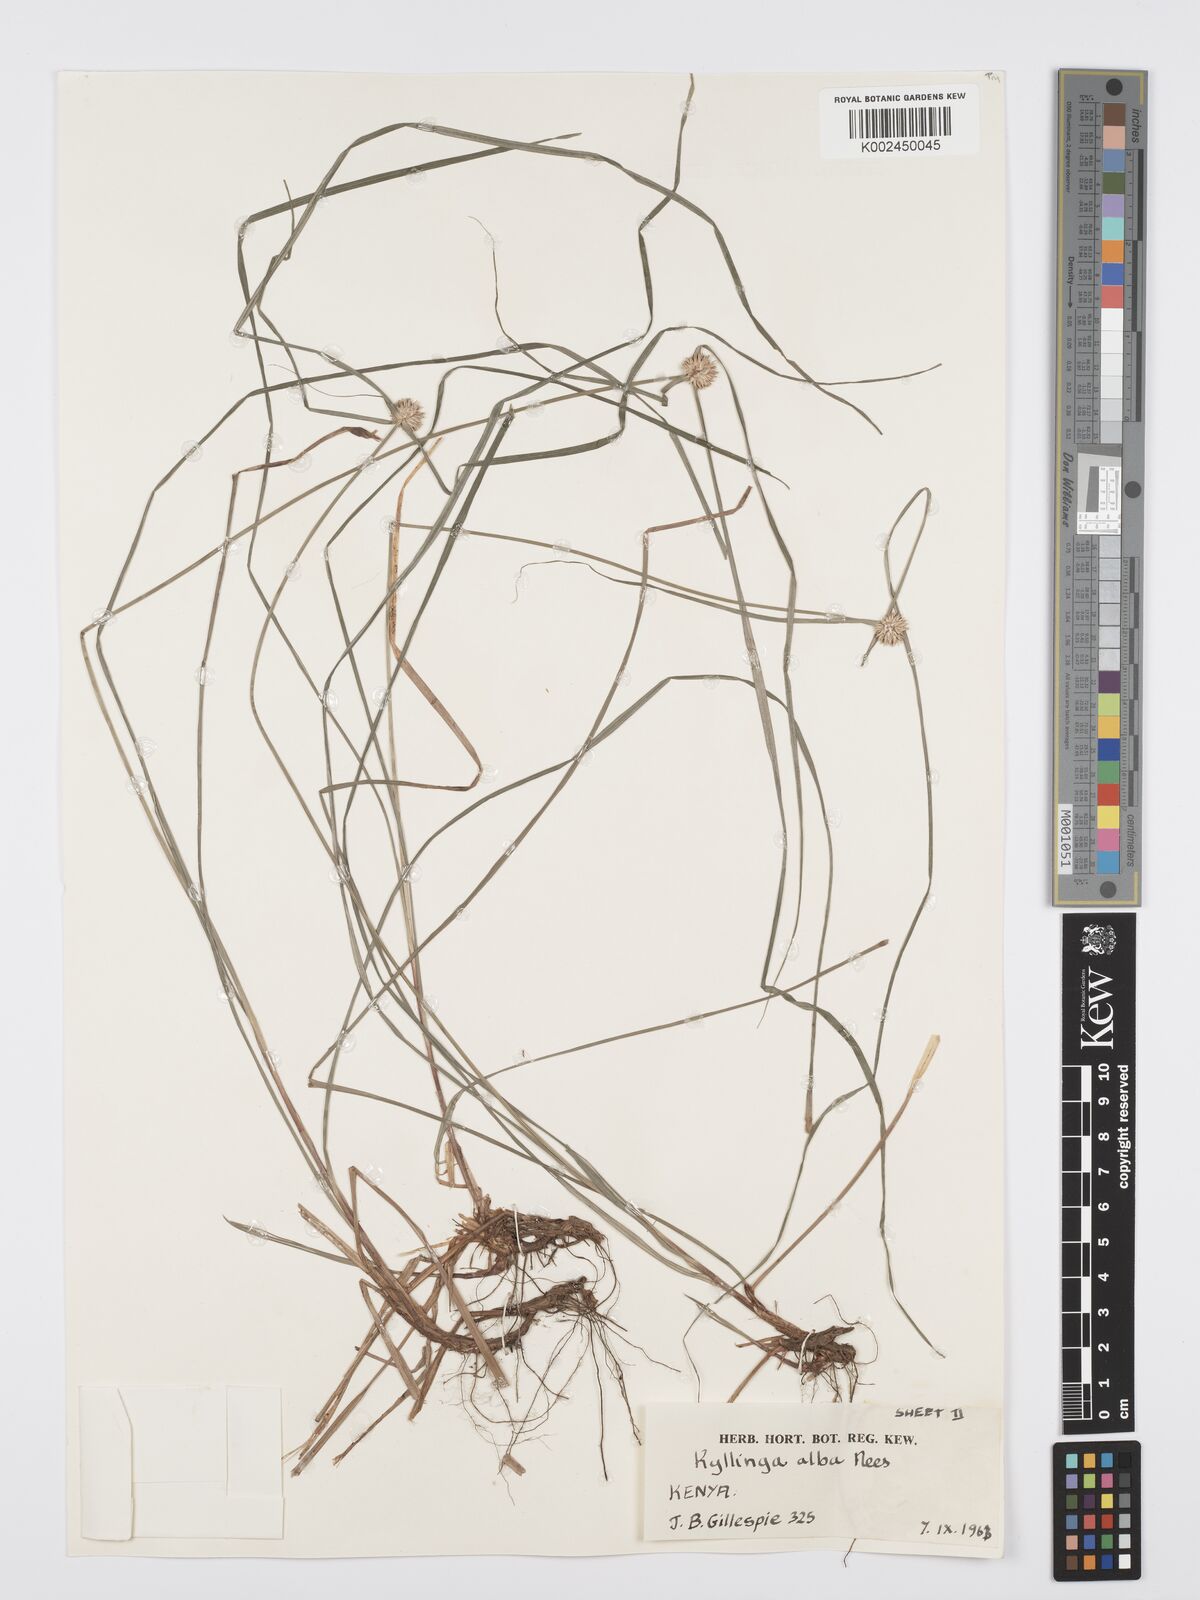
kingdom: Plantae
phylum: Tracheophyta
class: Liliopsida
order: Poales
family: Cyperaceae
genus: Cyperus
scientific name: Cyperus cartilagineus
